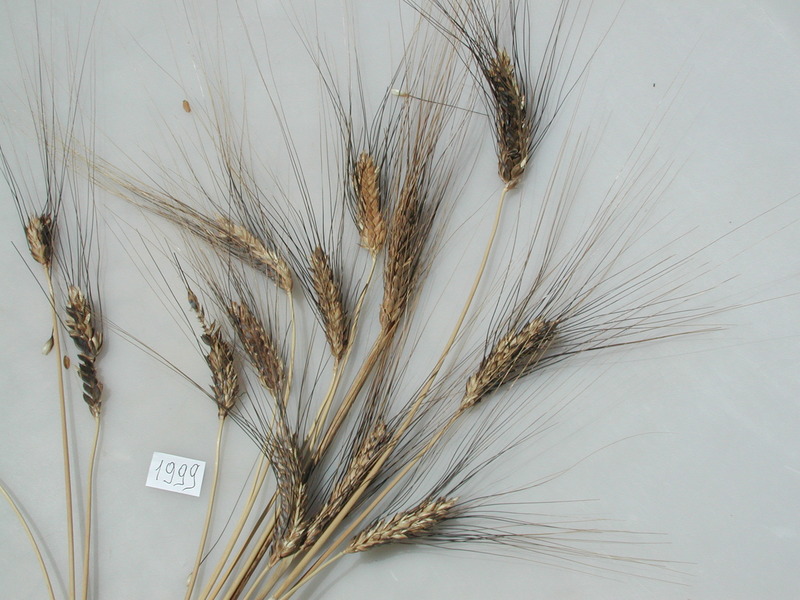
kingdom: Plantae
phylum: Tracheophyta
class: Liliopsida
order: Poales
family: Poaceae
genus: Triticum
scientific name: Triticum turgidum
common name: Wheat
